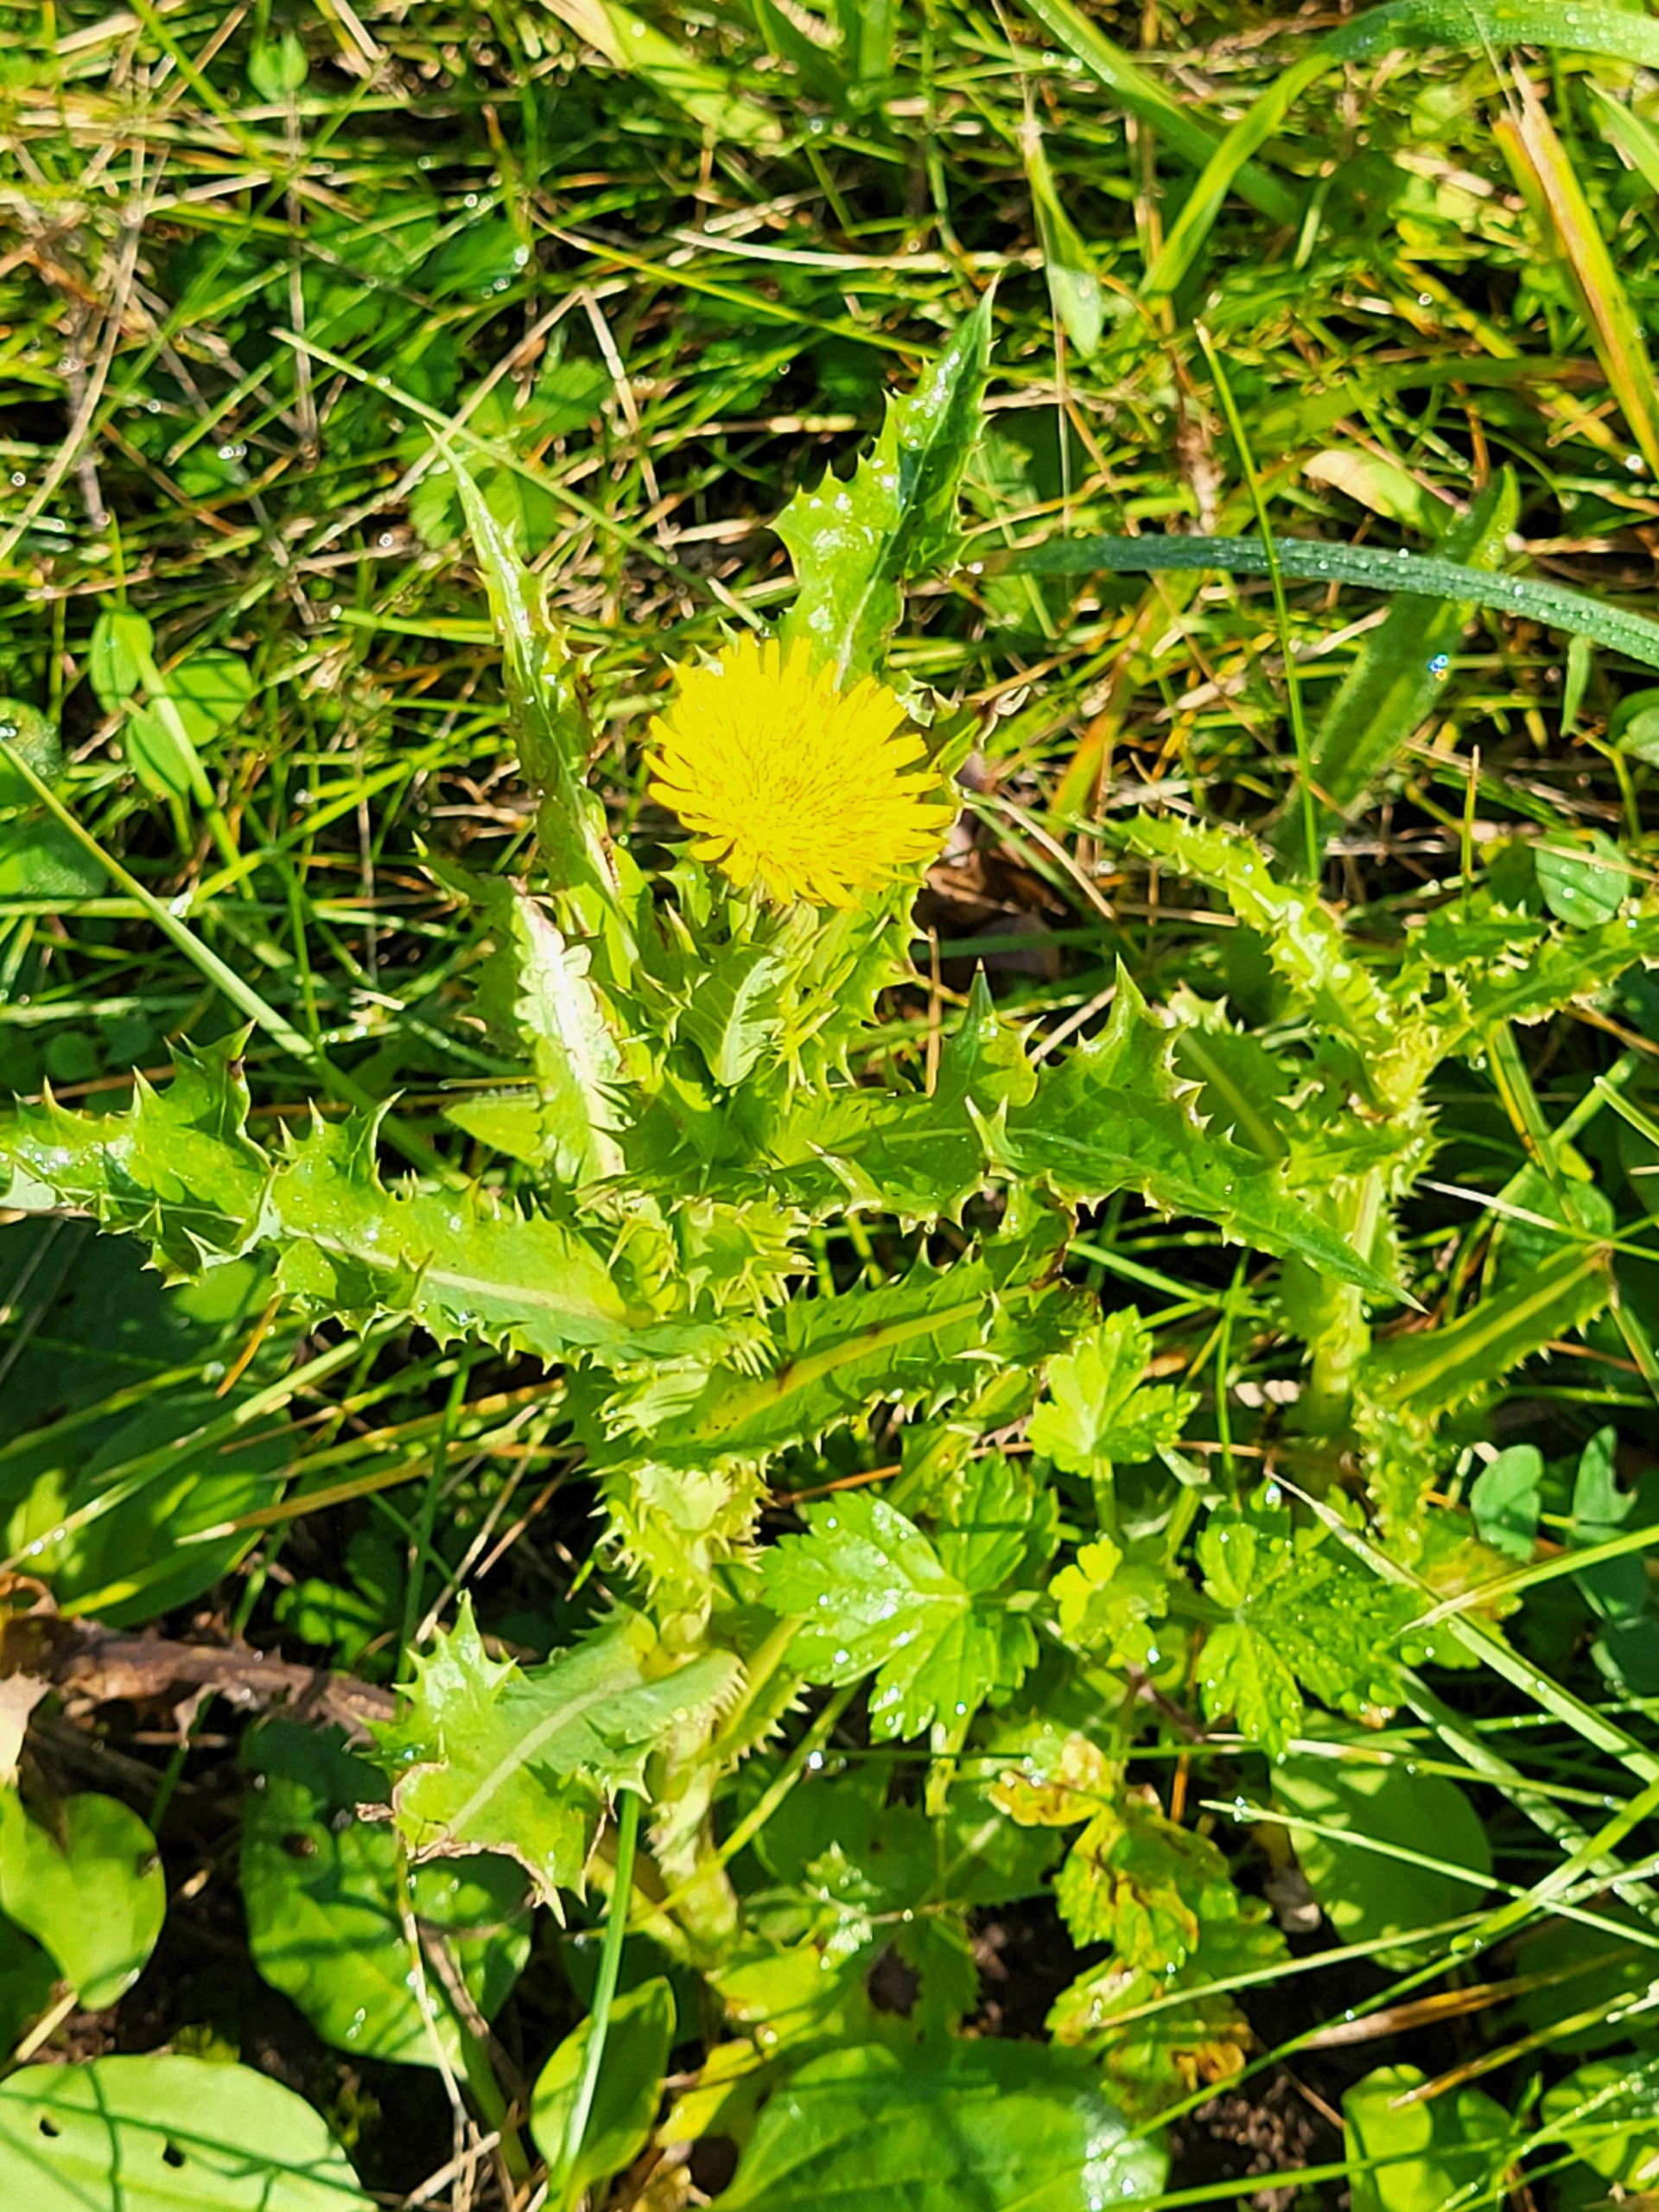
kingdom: Plantae
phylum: Tracheophyta
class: Magnoliopsida
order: Asterales
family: Asteraceae
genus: Sonchus
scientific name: Sonchus asper
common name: Ru svinemælk
